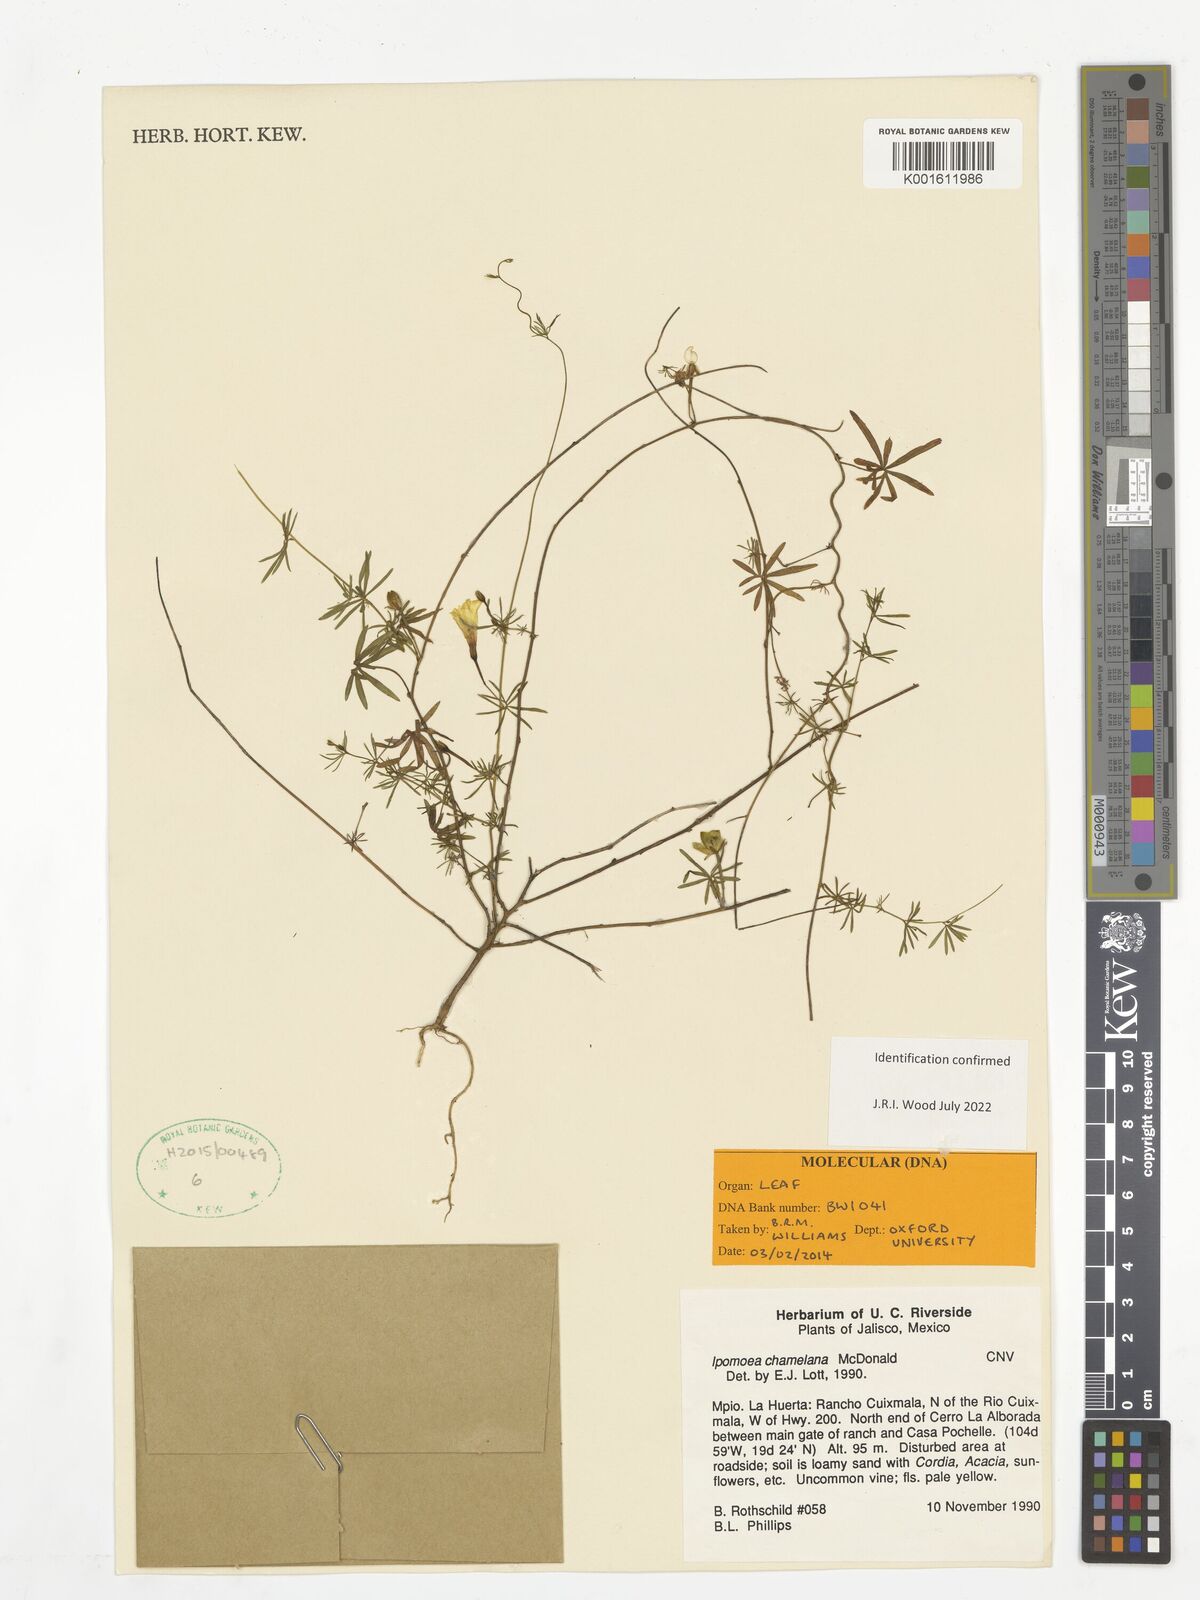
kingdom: Plantae
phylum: Tracheophyta
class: Magnoliopsida
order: Solanales
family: Convolvulaceae
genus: Ipomoea
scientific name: Ipomoea chamelana
